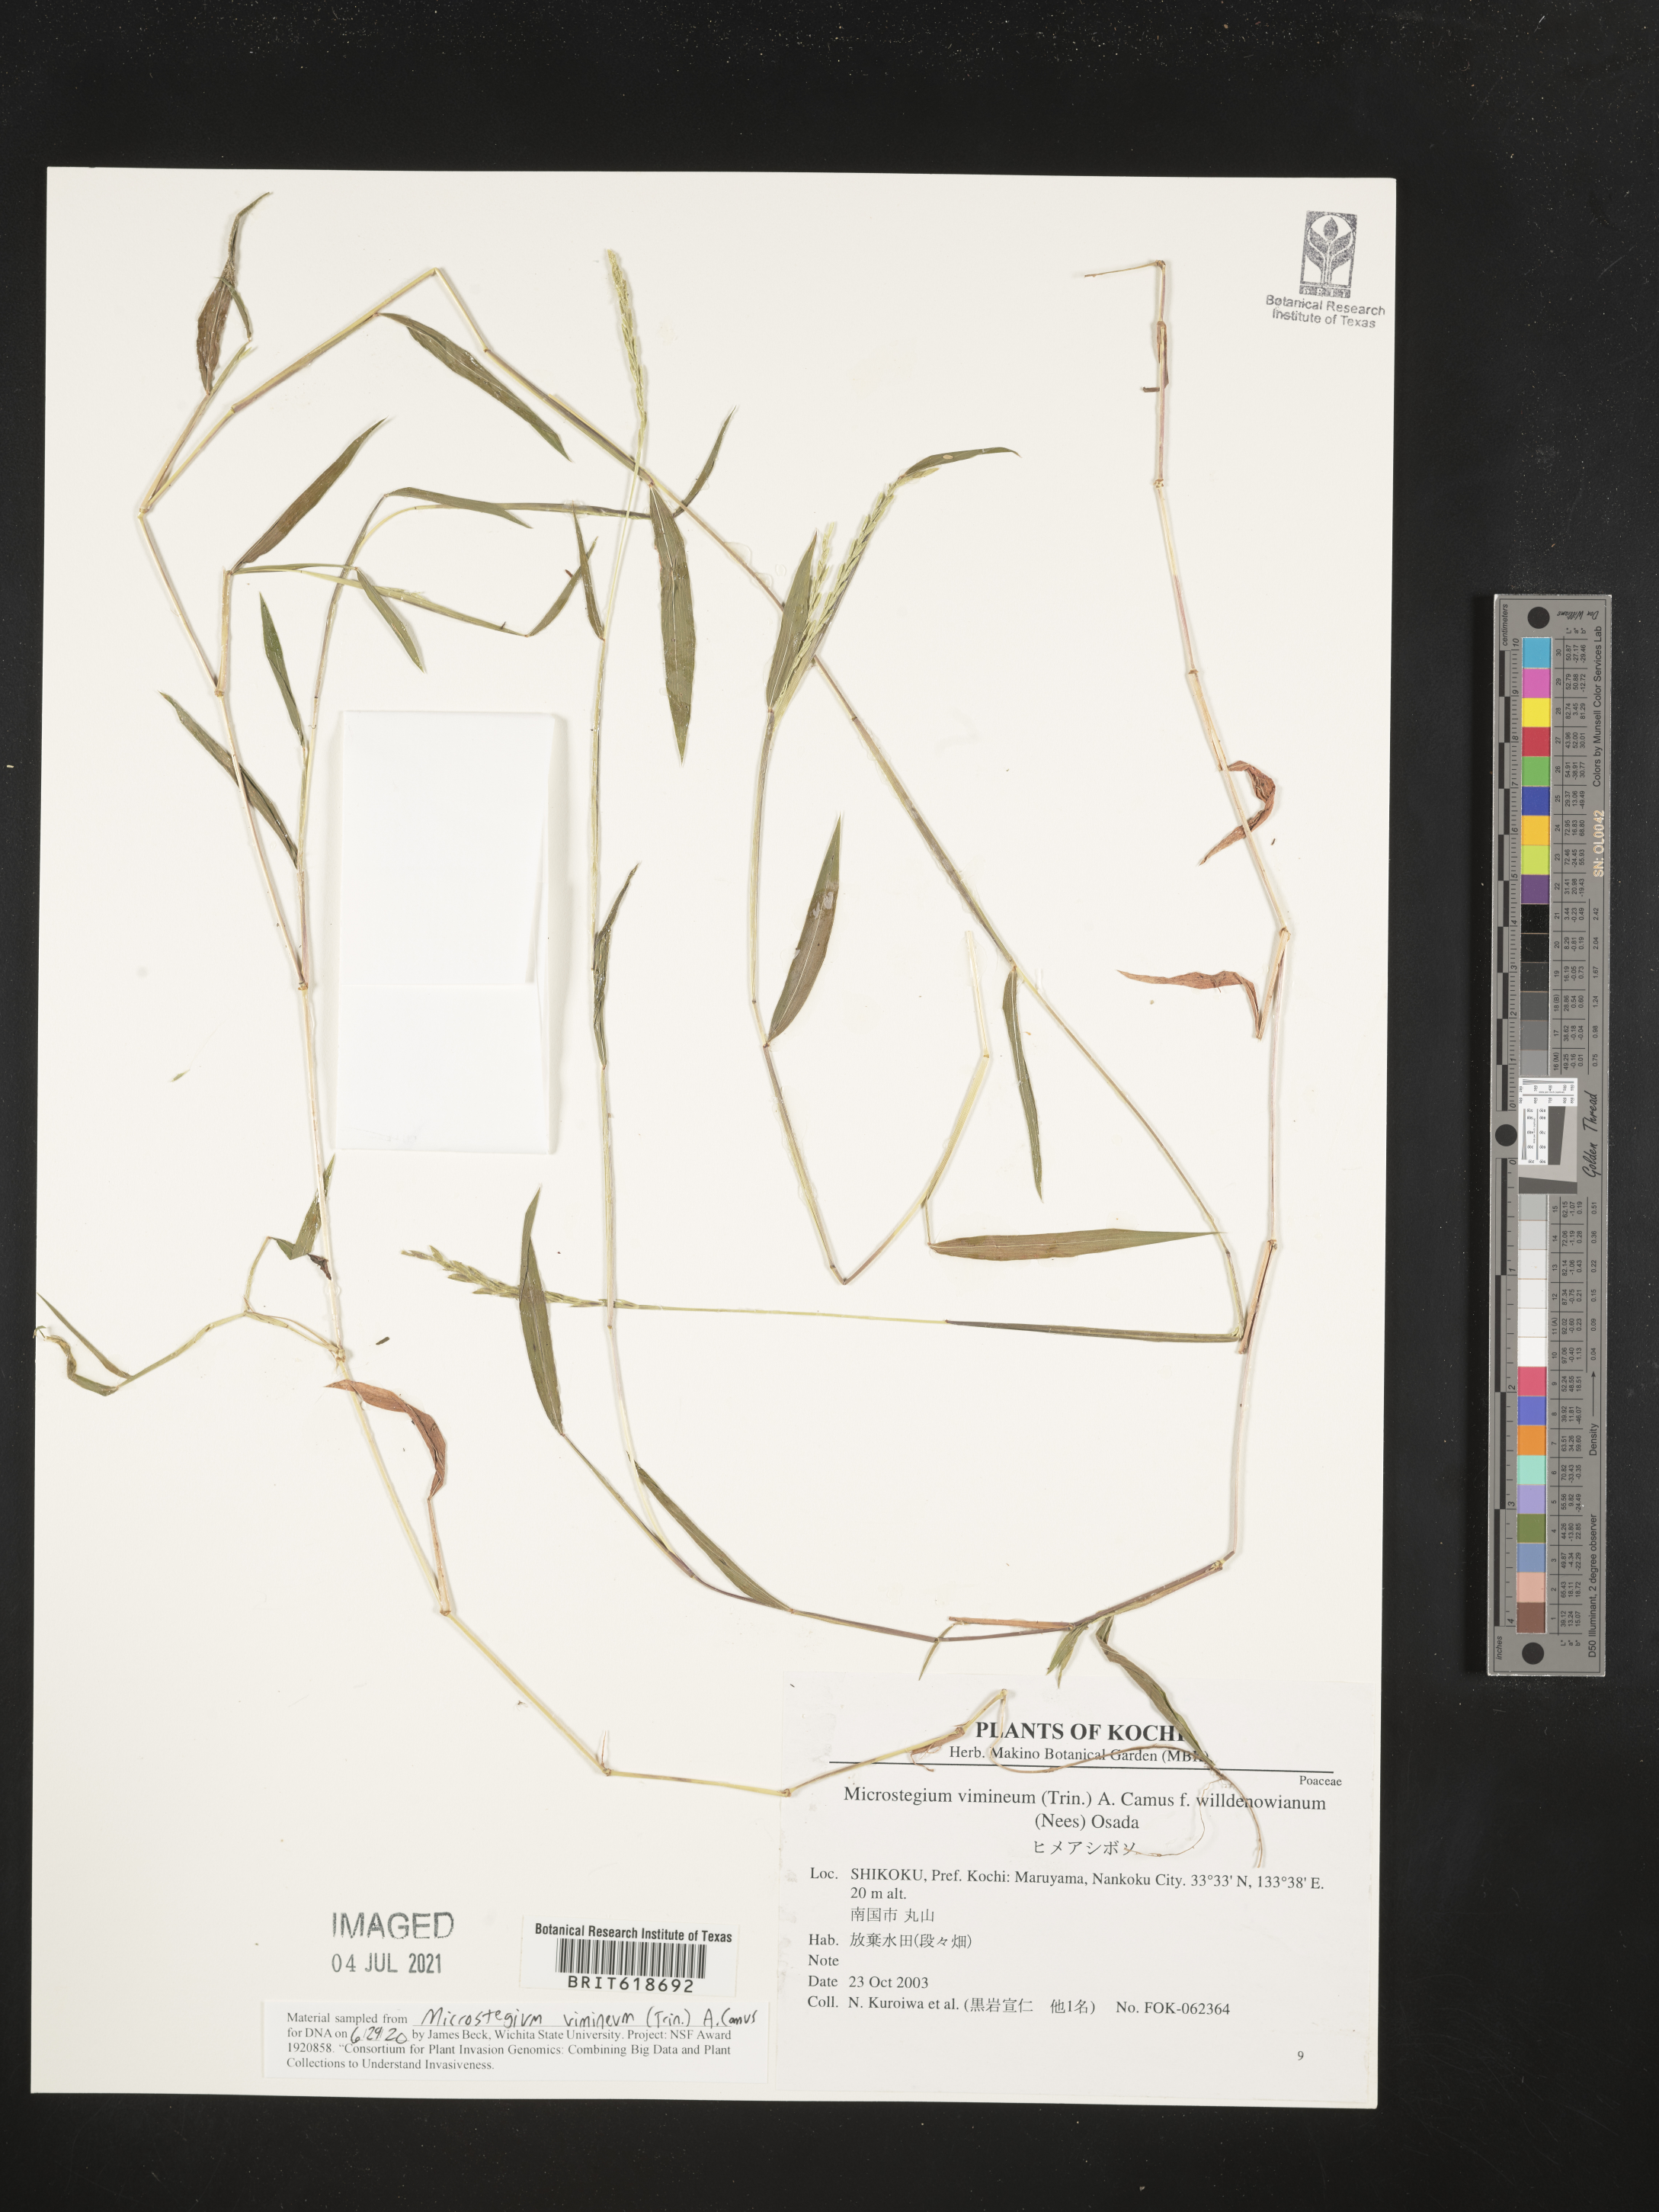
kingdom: Plantae
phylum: Tracheophyta
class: Liliopsida
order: Poales
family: Poaceae
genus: Microstegium
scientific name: Microstegium vimineum
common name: Japanese stiltgrass
